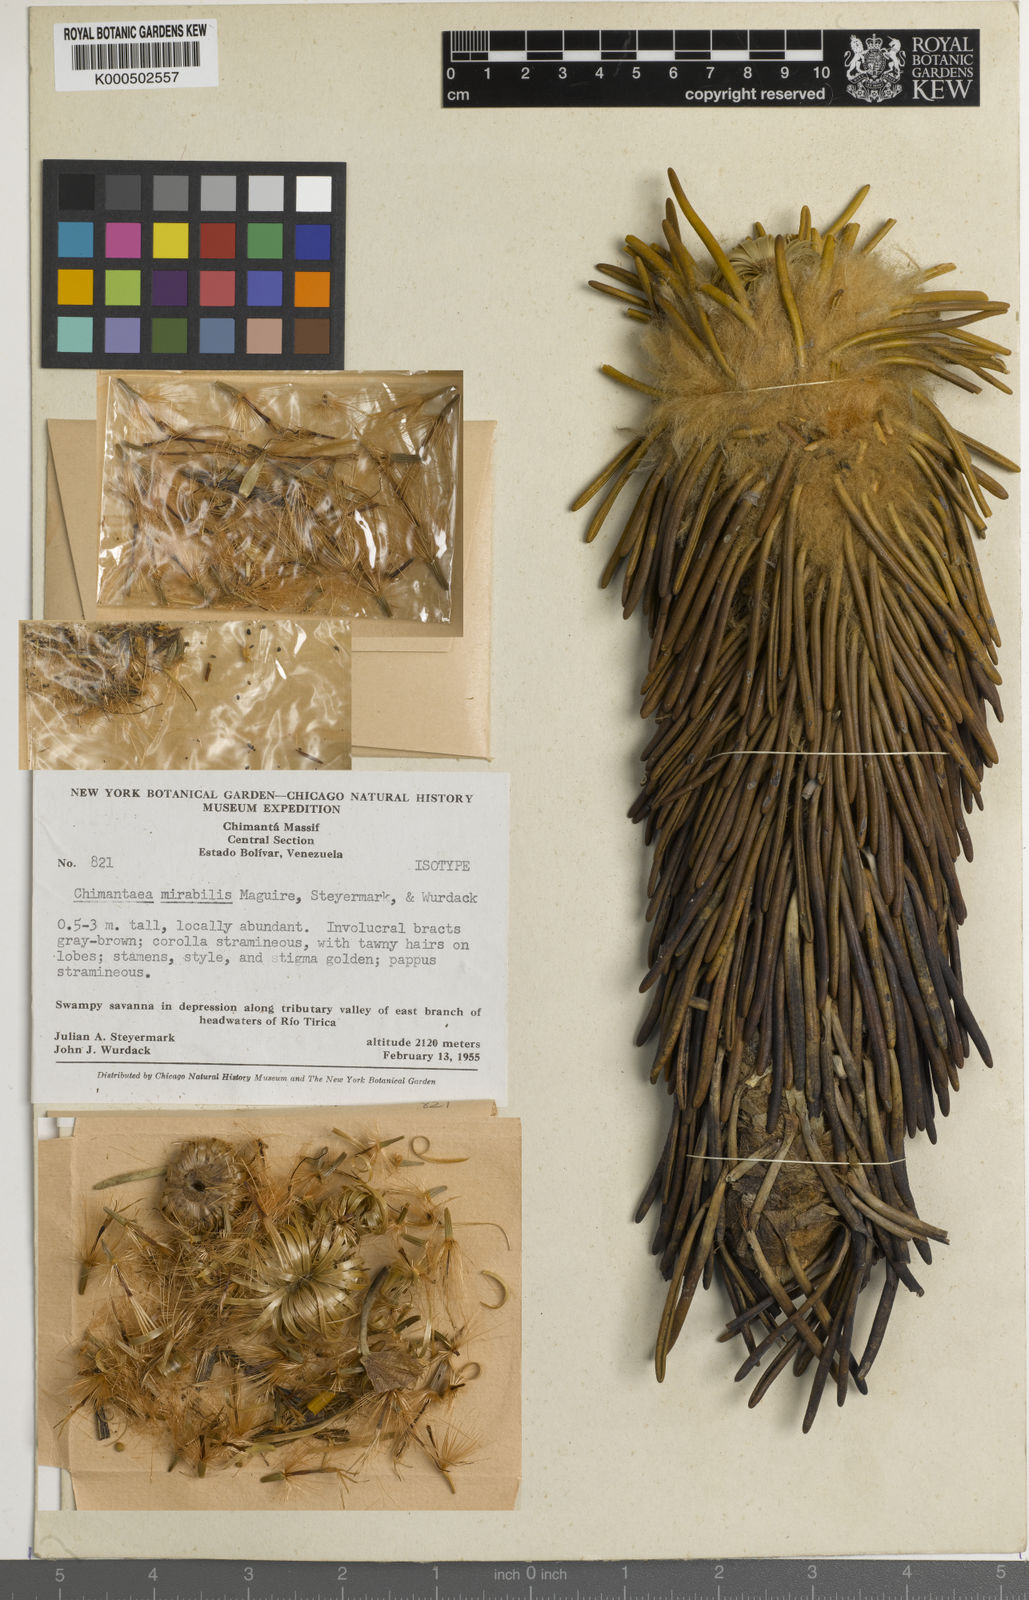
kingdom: Plantae
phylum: Tracheophyta
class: Magnoliopsida
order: Asterales
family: Asteraceae
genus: Chimantaea
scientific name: Chimantaea mirabilis
